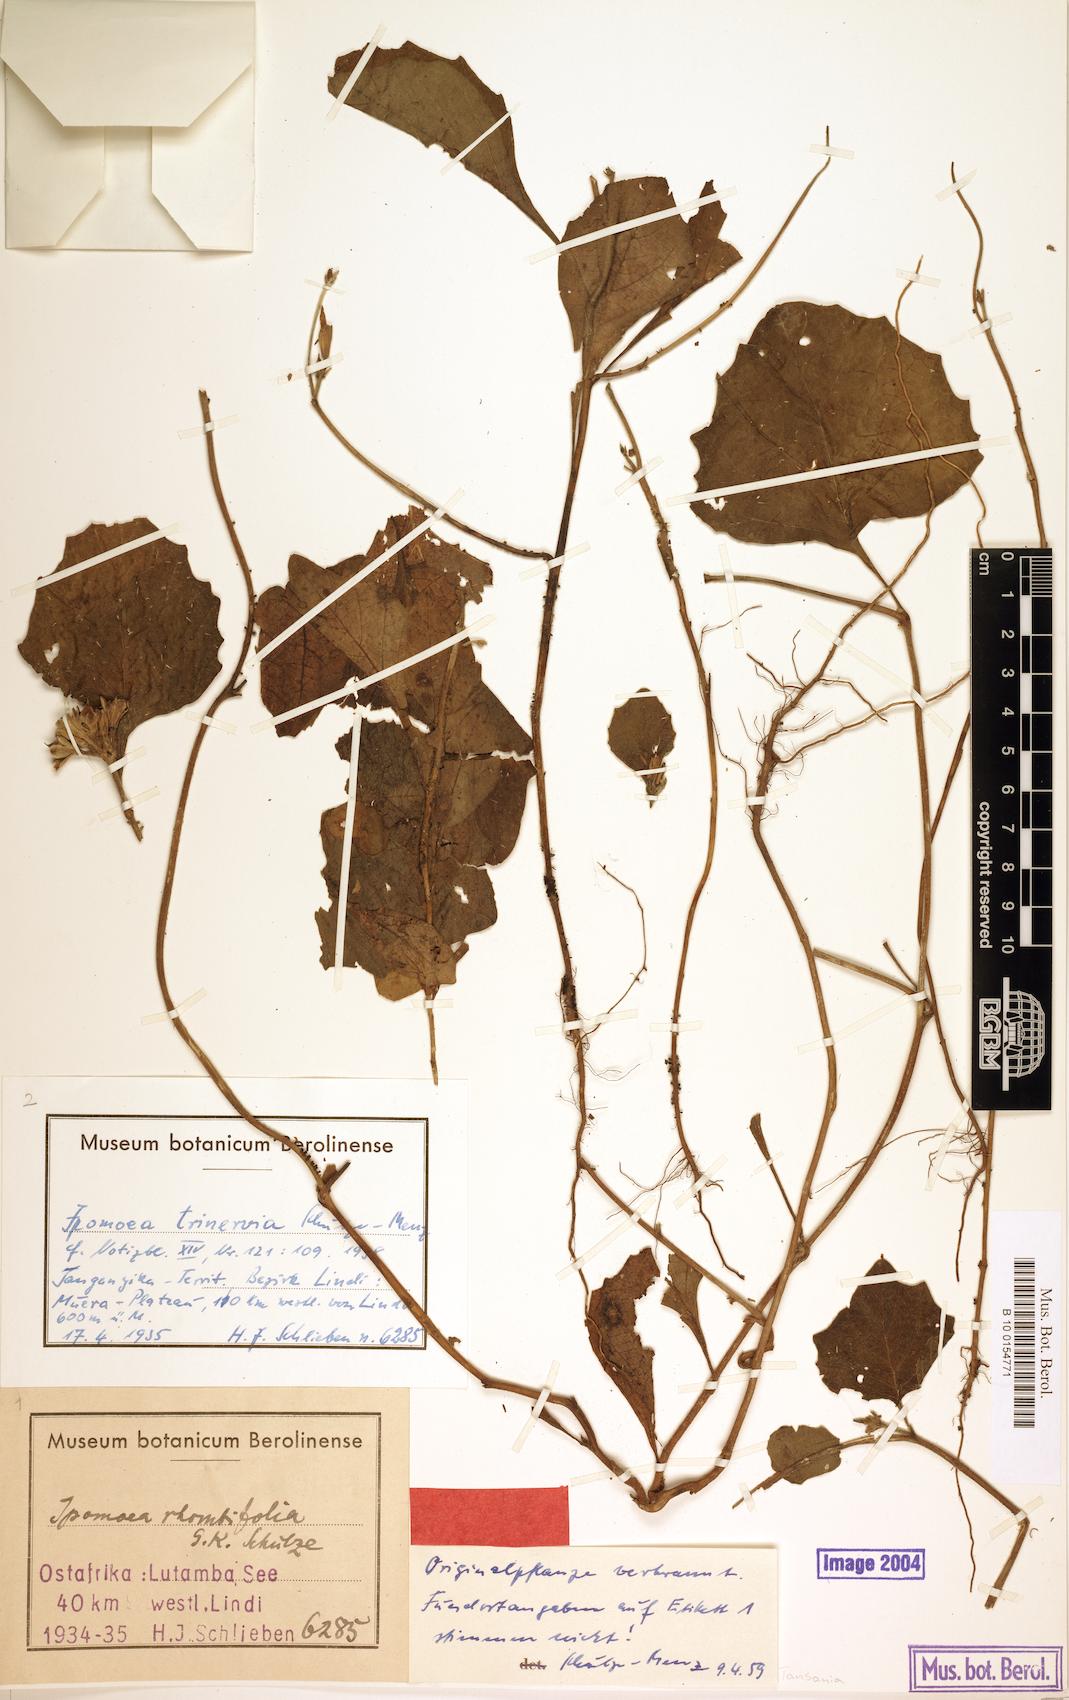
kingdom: Plantae
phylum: Tracheophyta
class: Magnoliopsida
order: Solanales
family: Convolvulaceae
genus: Ipomoea
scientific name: Ipomoea trinervia
